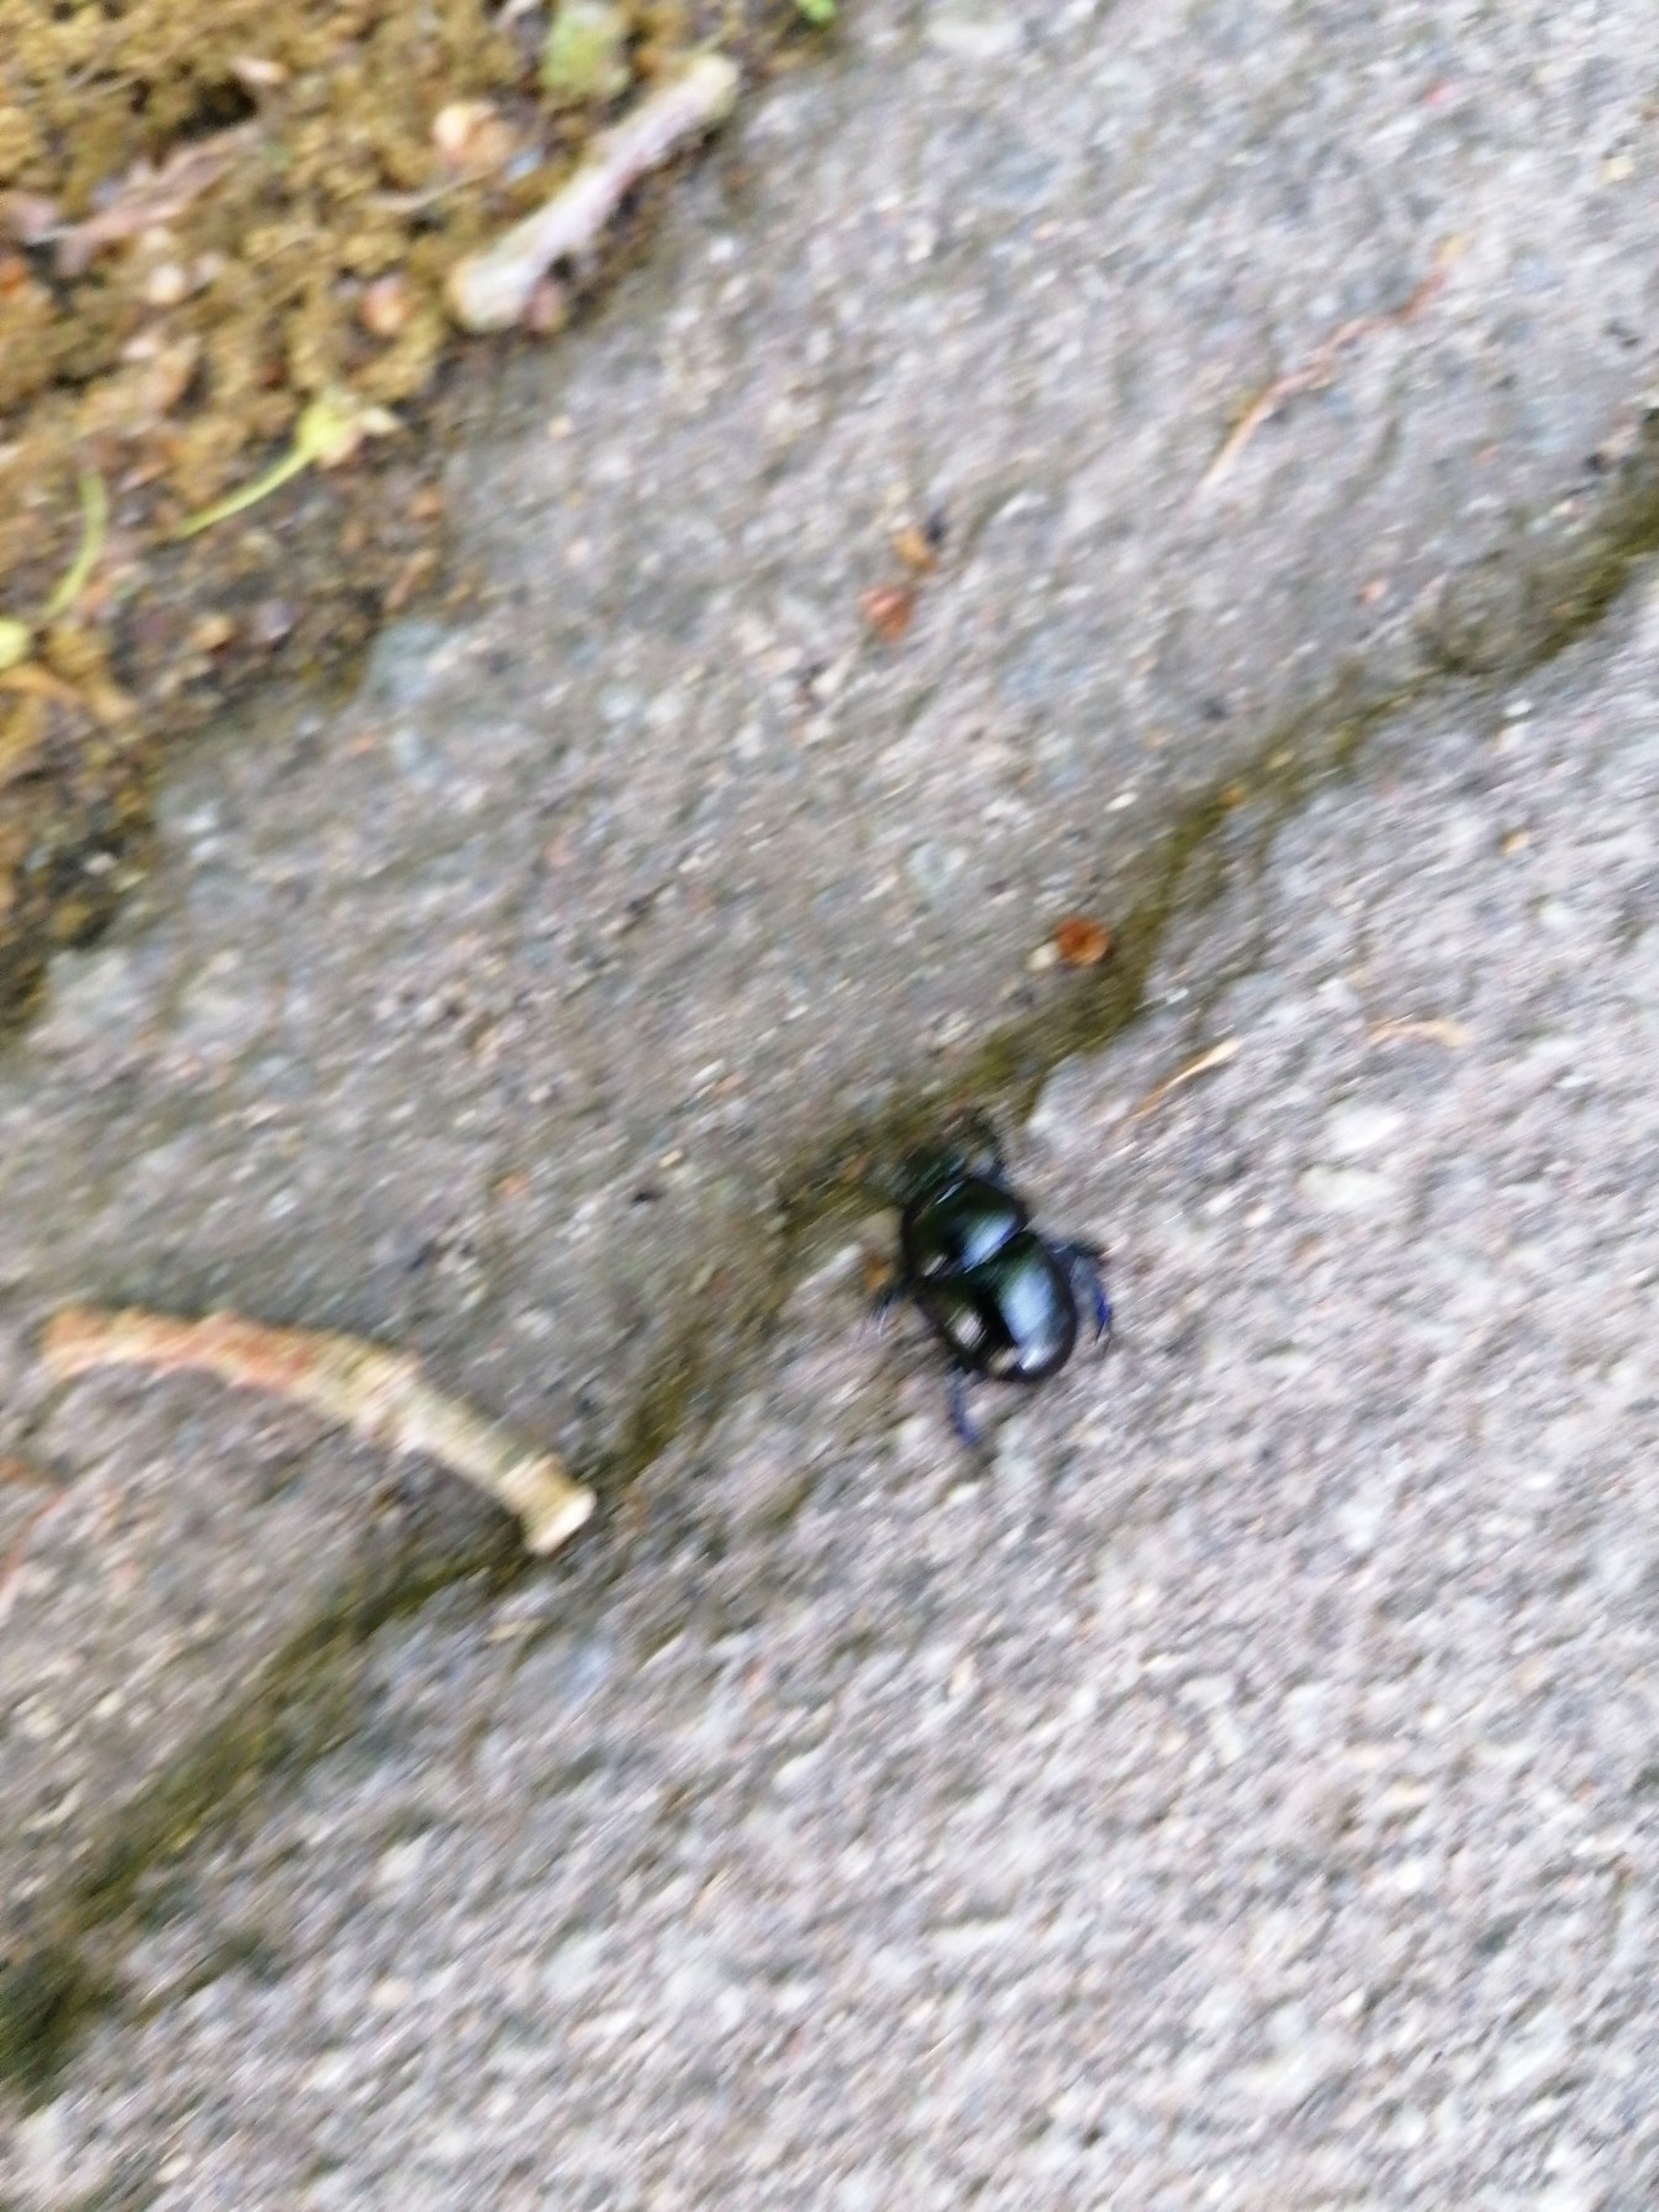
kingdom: Animalia
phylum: Arthropoda
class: Insecta
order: Coleoptera
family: Geotrupidae
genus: Anoplotrupes
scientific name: Anoplotrupes stercorosus
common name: Skovskarnbasse
